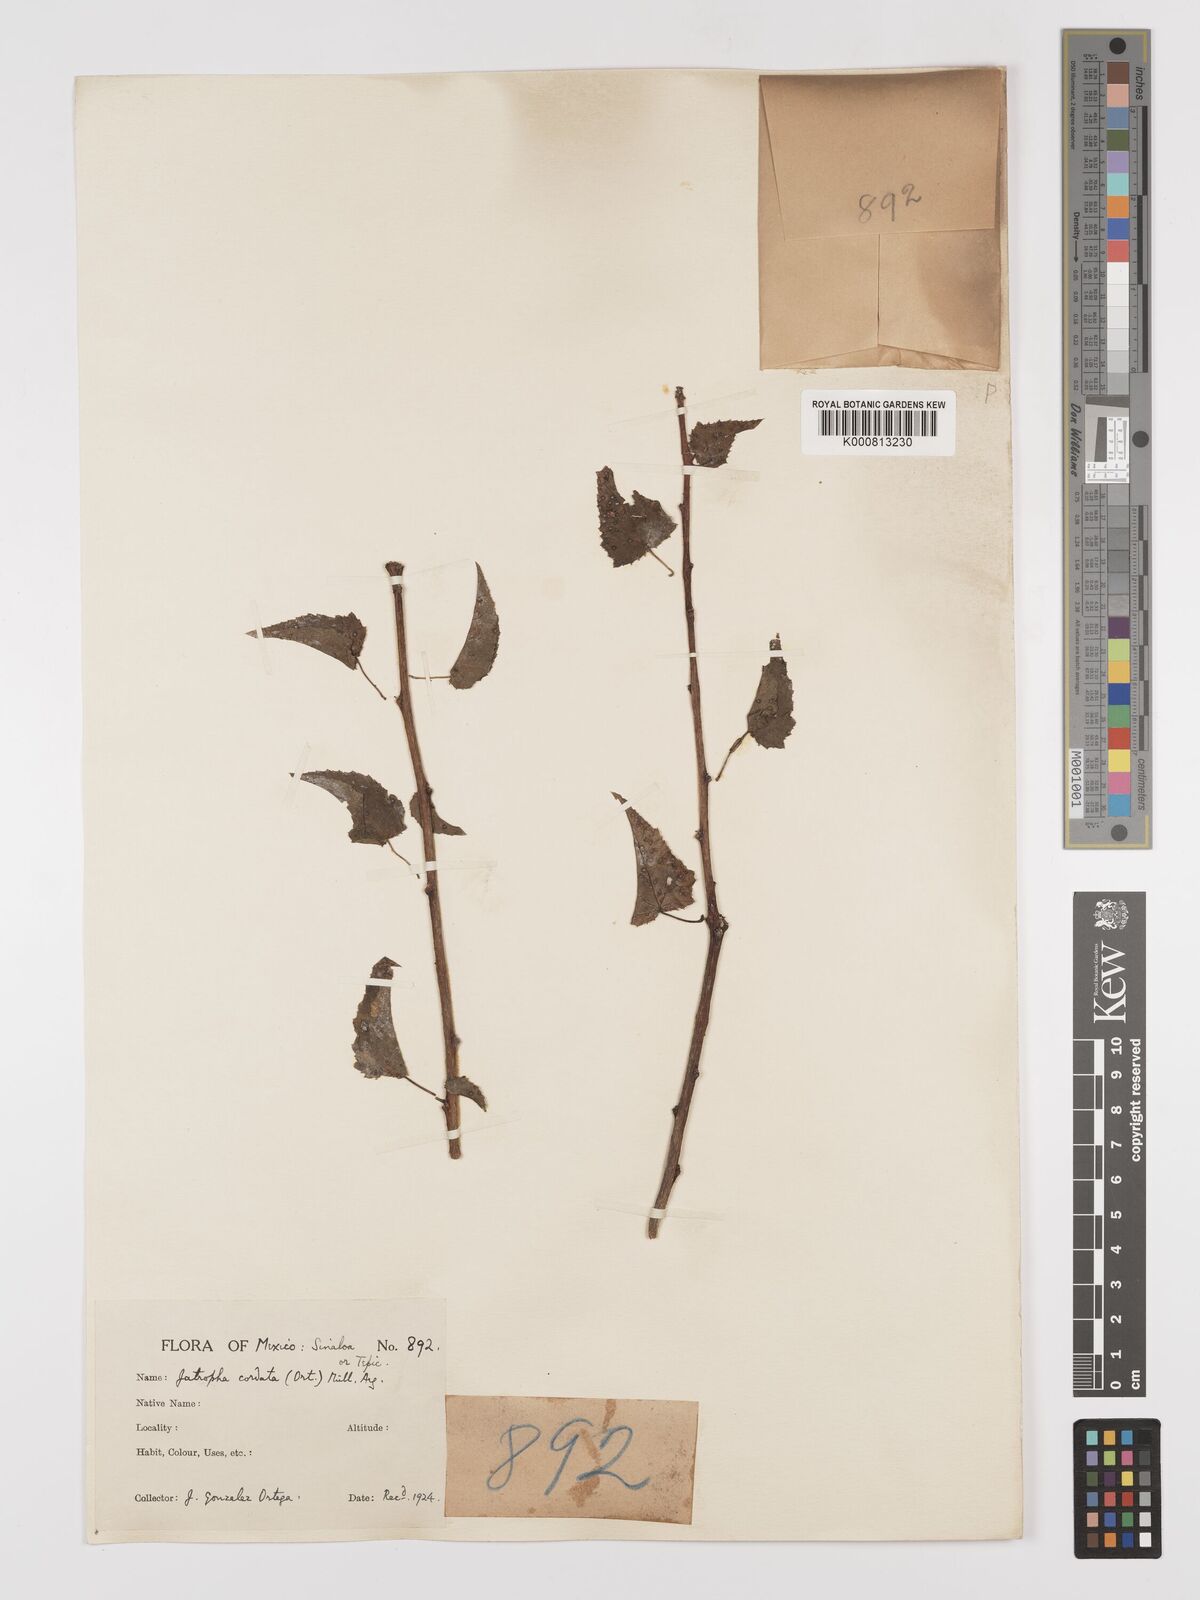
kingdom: Plantae
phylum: Tracheophyta
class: Magnoliopsida
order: Malpighiales
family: Euphorbiaceae
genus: Jatropha
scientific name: Jatropha
